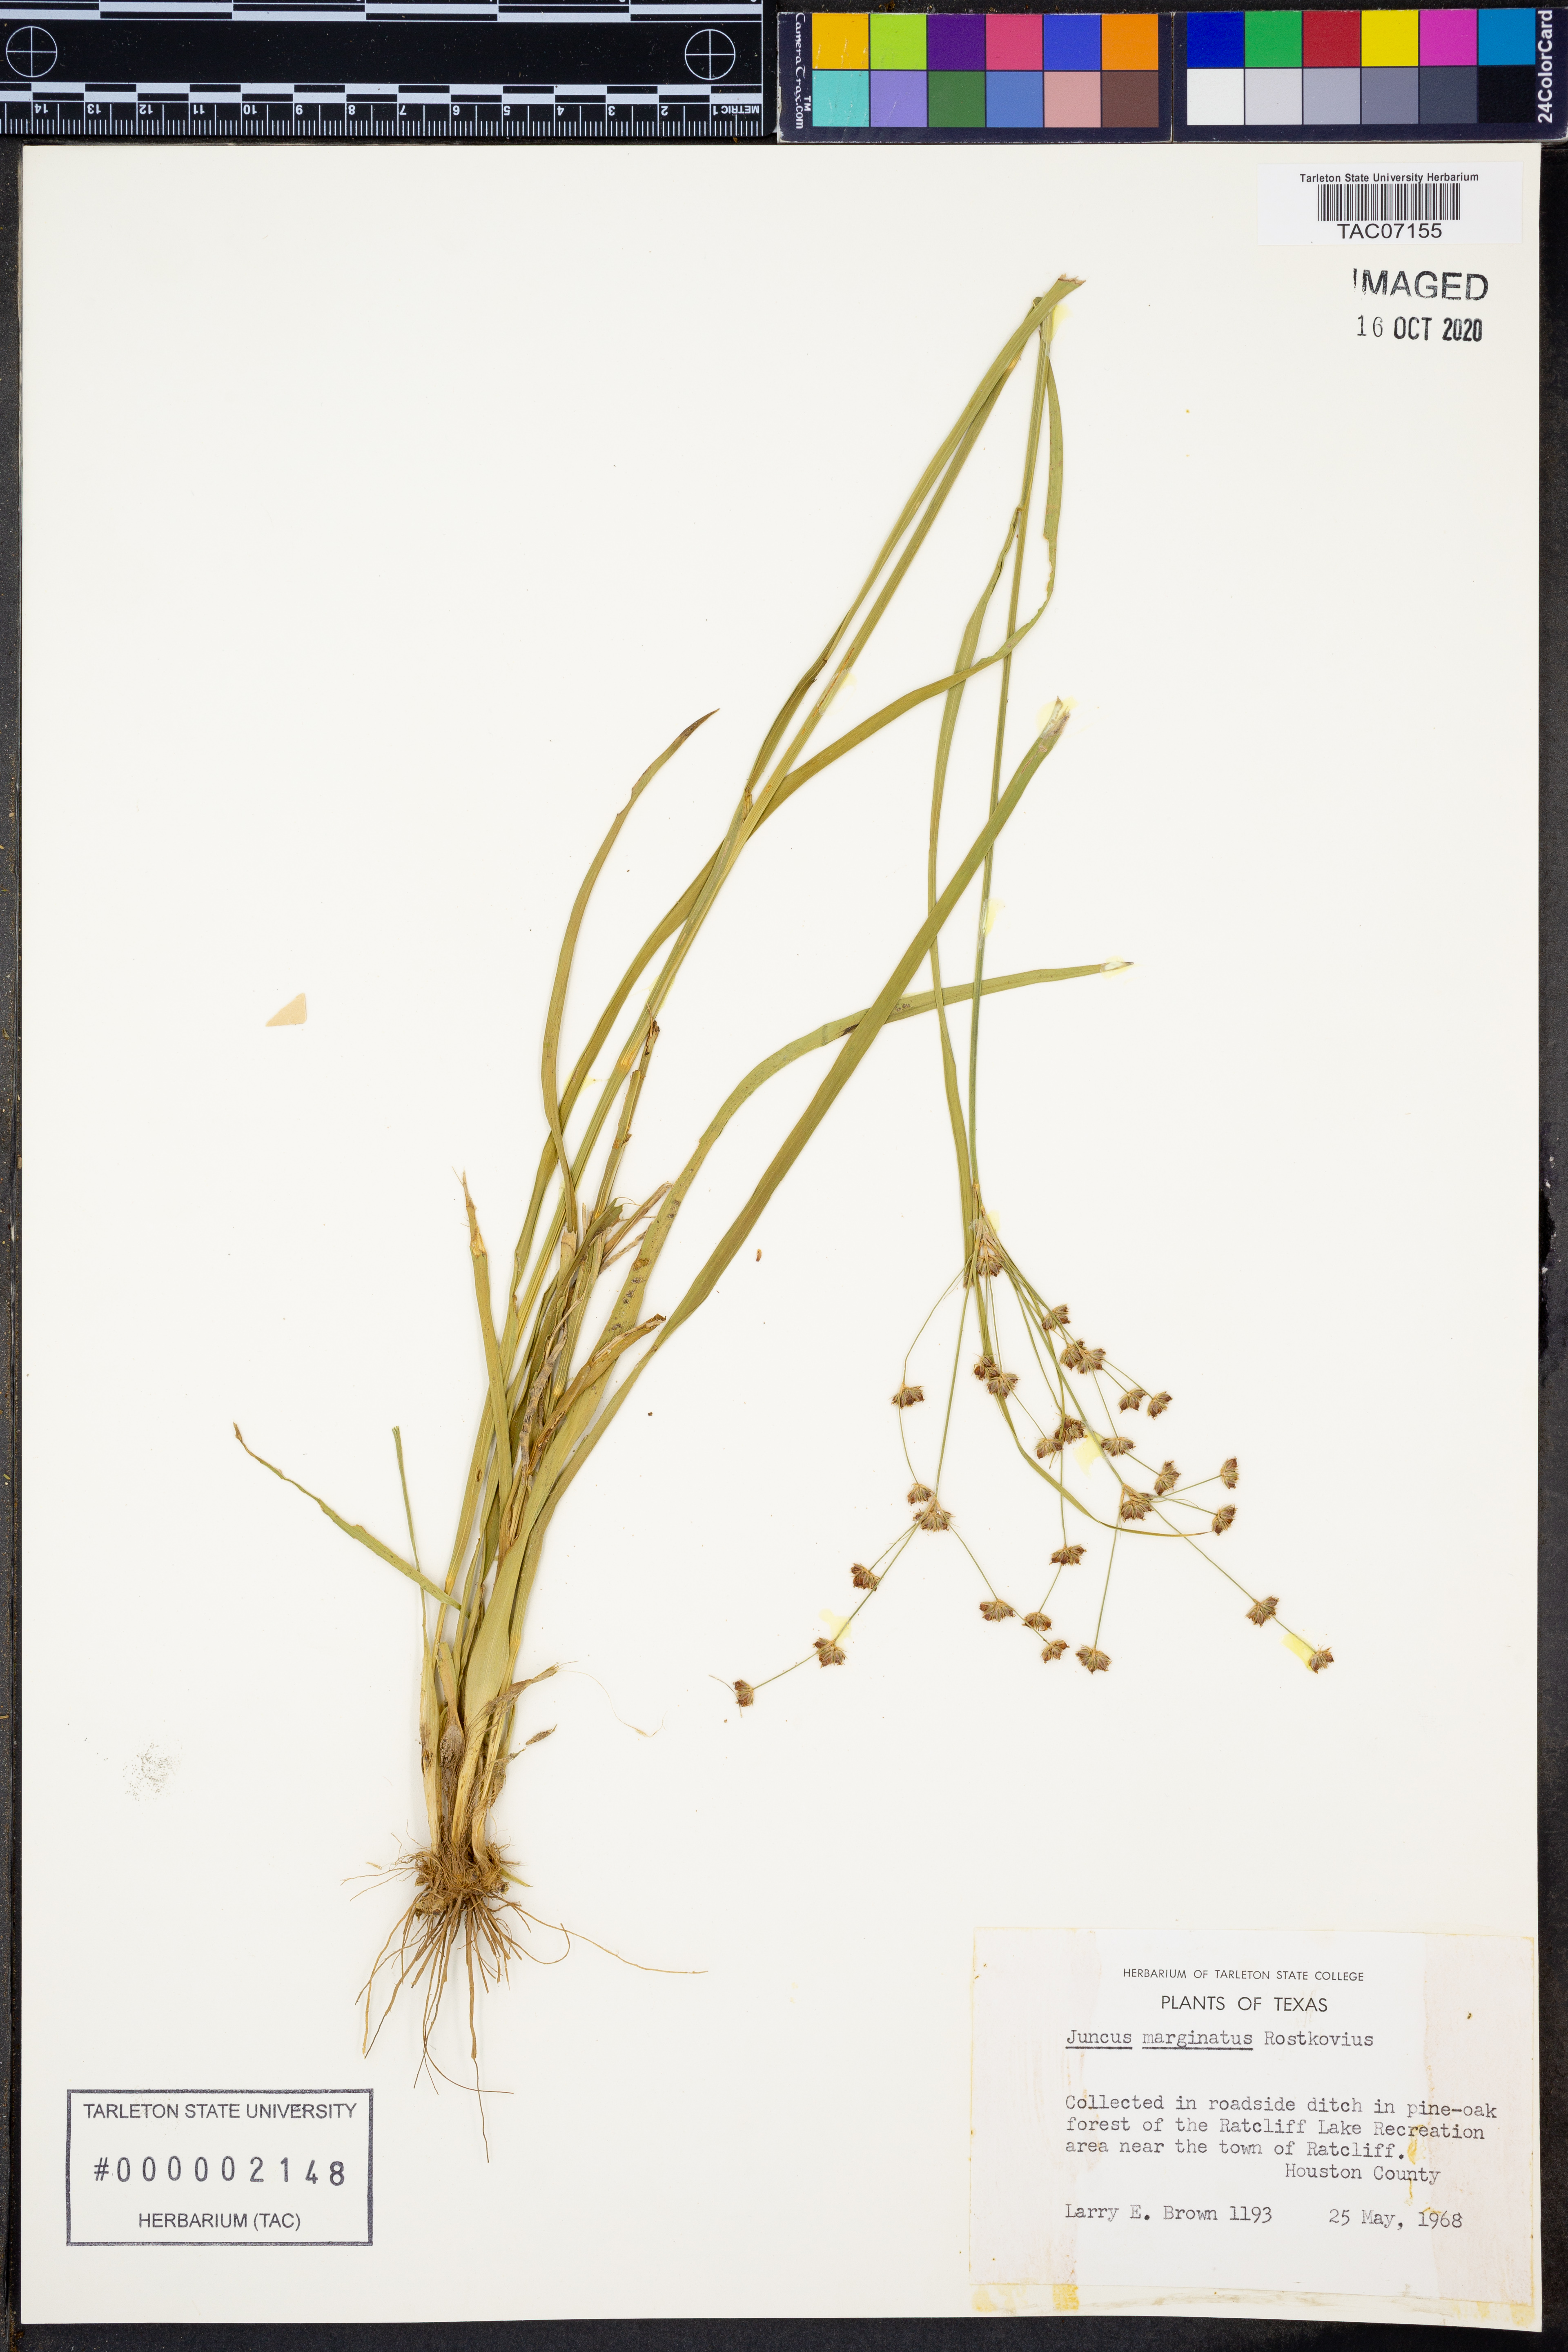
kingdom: Plantae
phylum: Tracheophyta
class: Liliopsida
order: Poales
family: Juncaceae
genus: Juncus
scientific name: Juncus marginatus
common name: Grass-leaf rush
